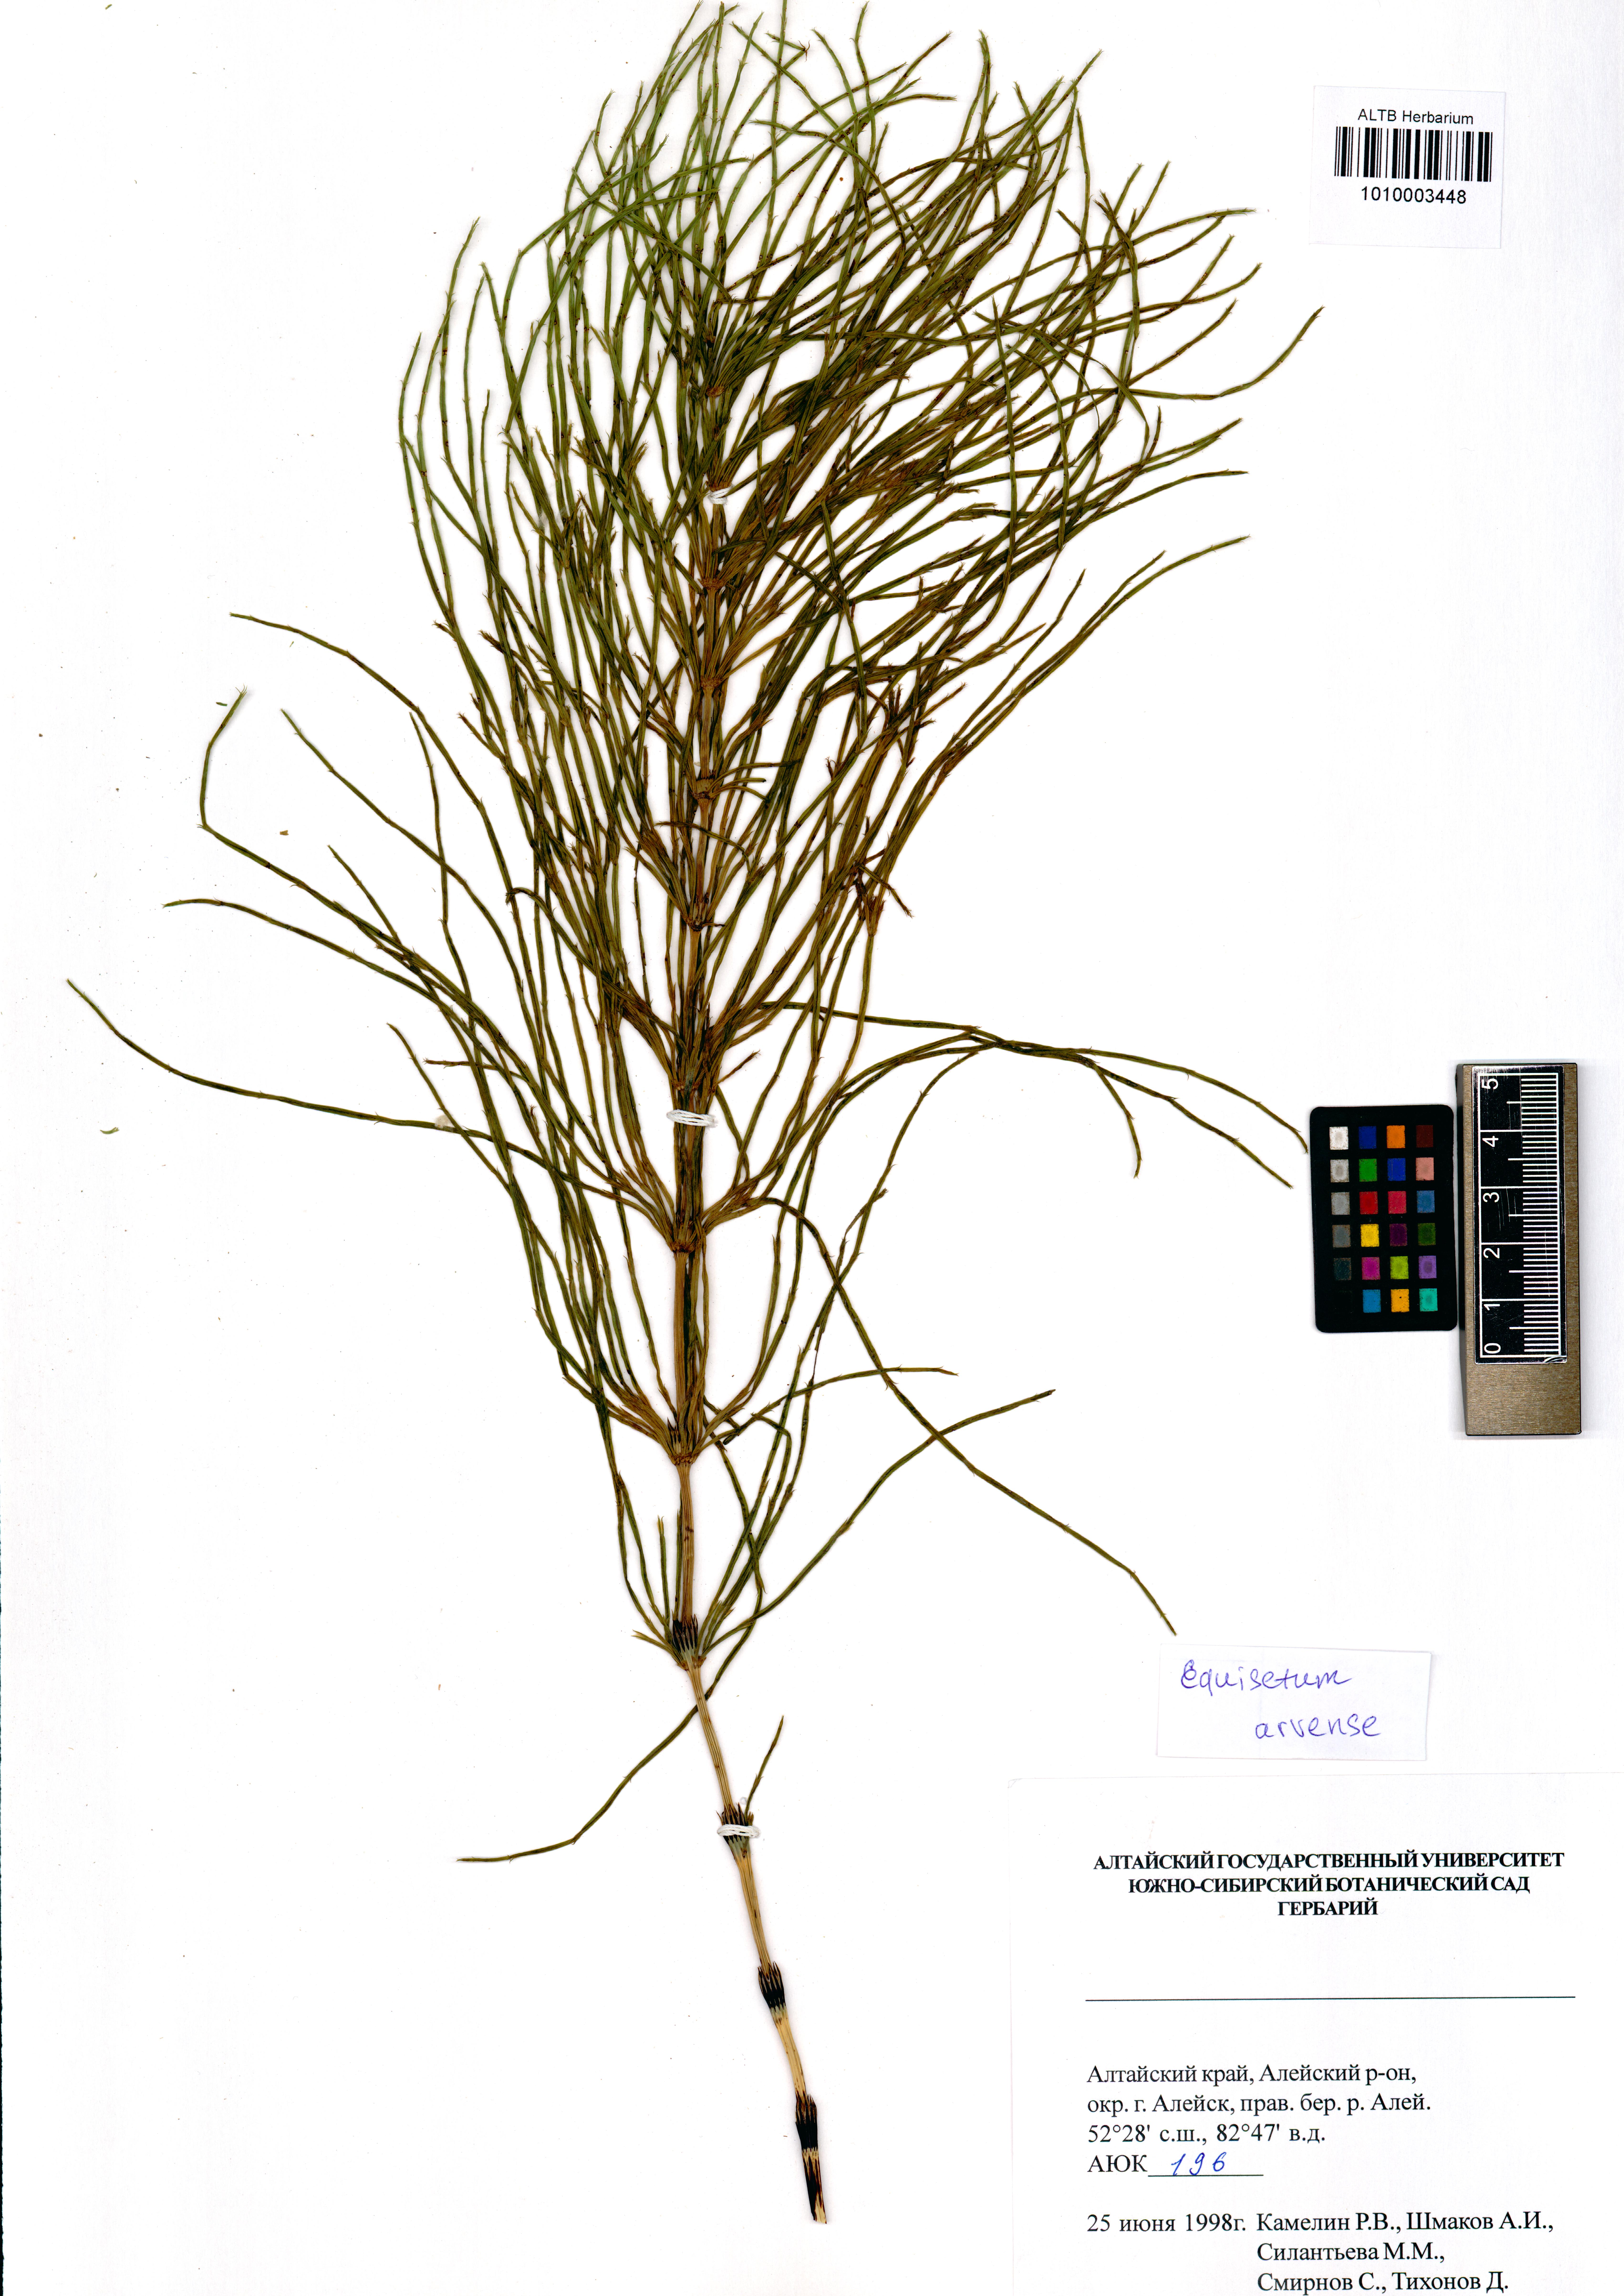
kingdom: Plantae
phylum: Tracheophyta
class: Polypodiopsida
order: Equisetales
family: Equisetaceae
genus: Equisetum
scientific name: Equisetum arvense
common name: Field horsetail
